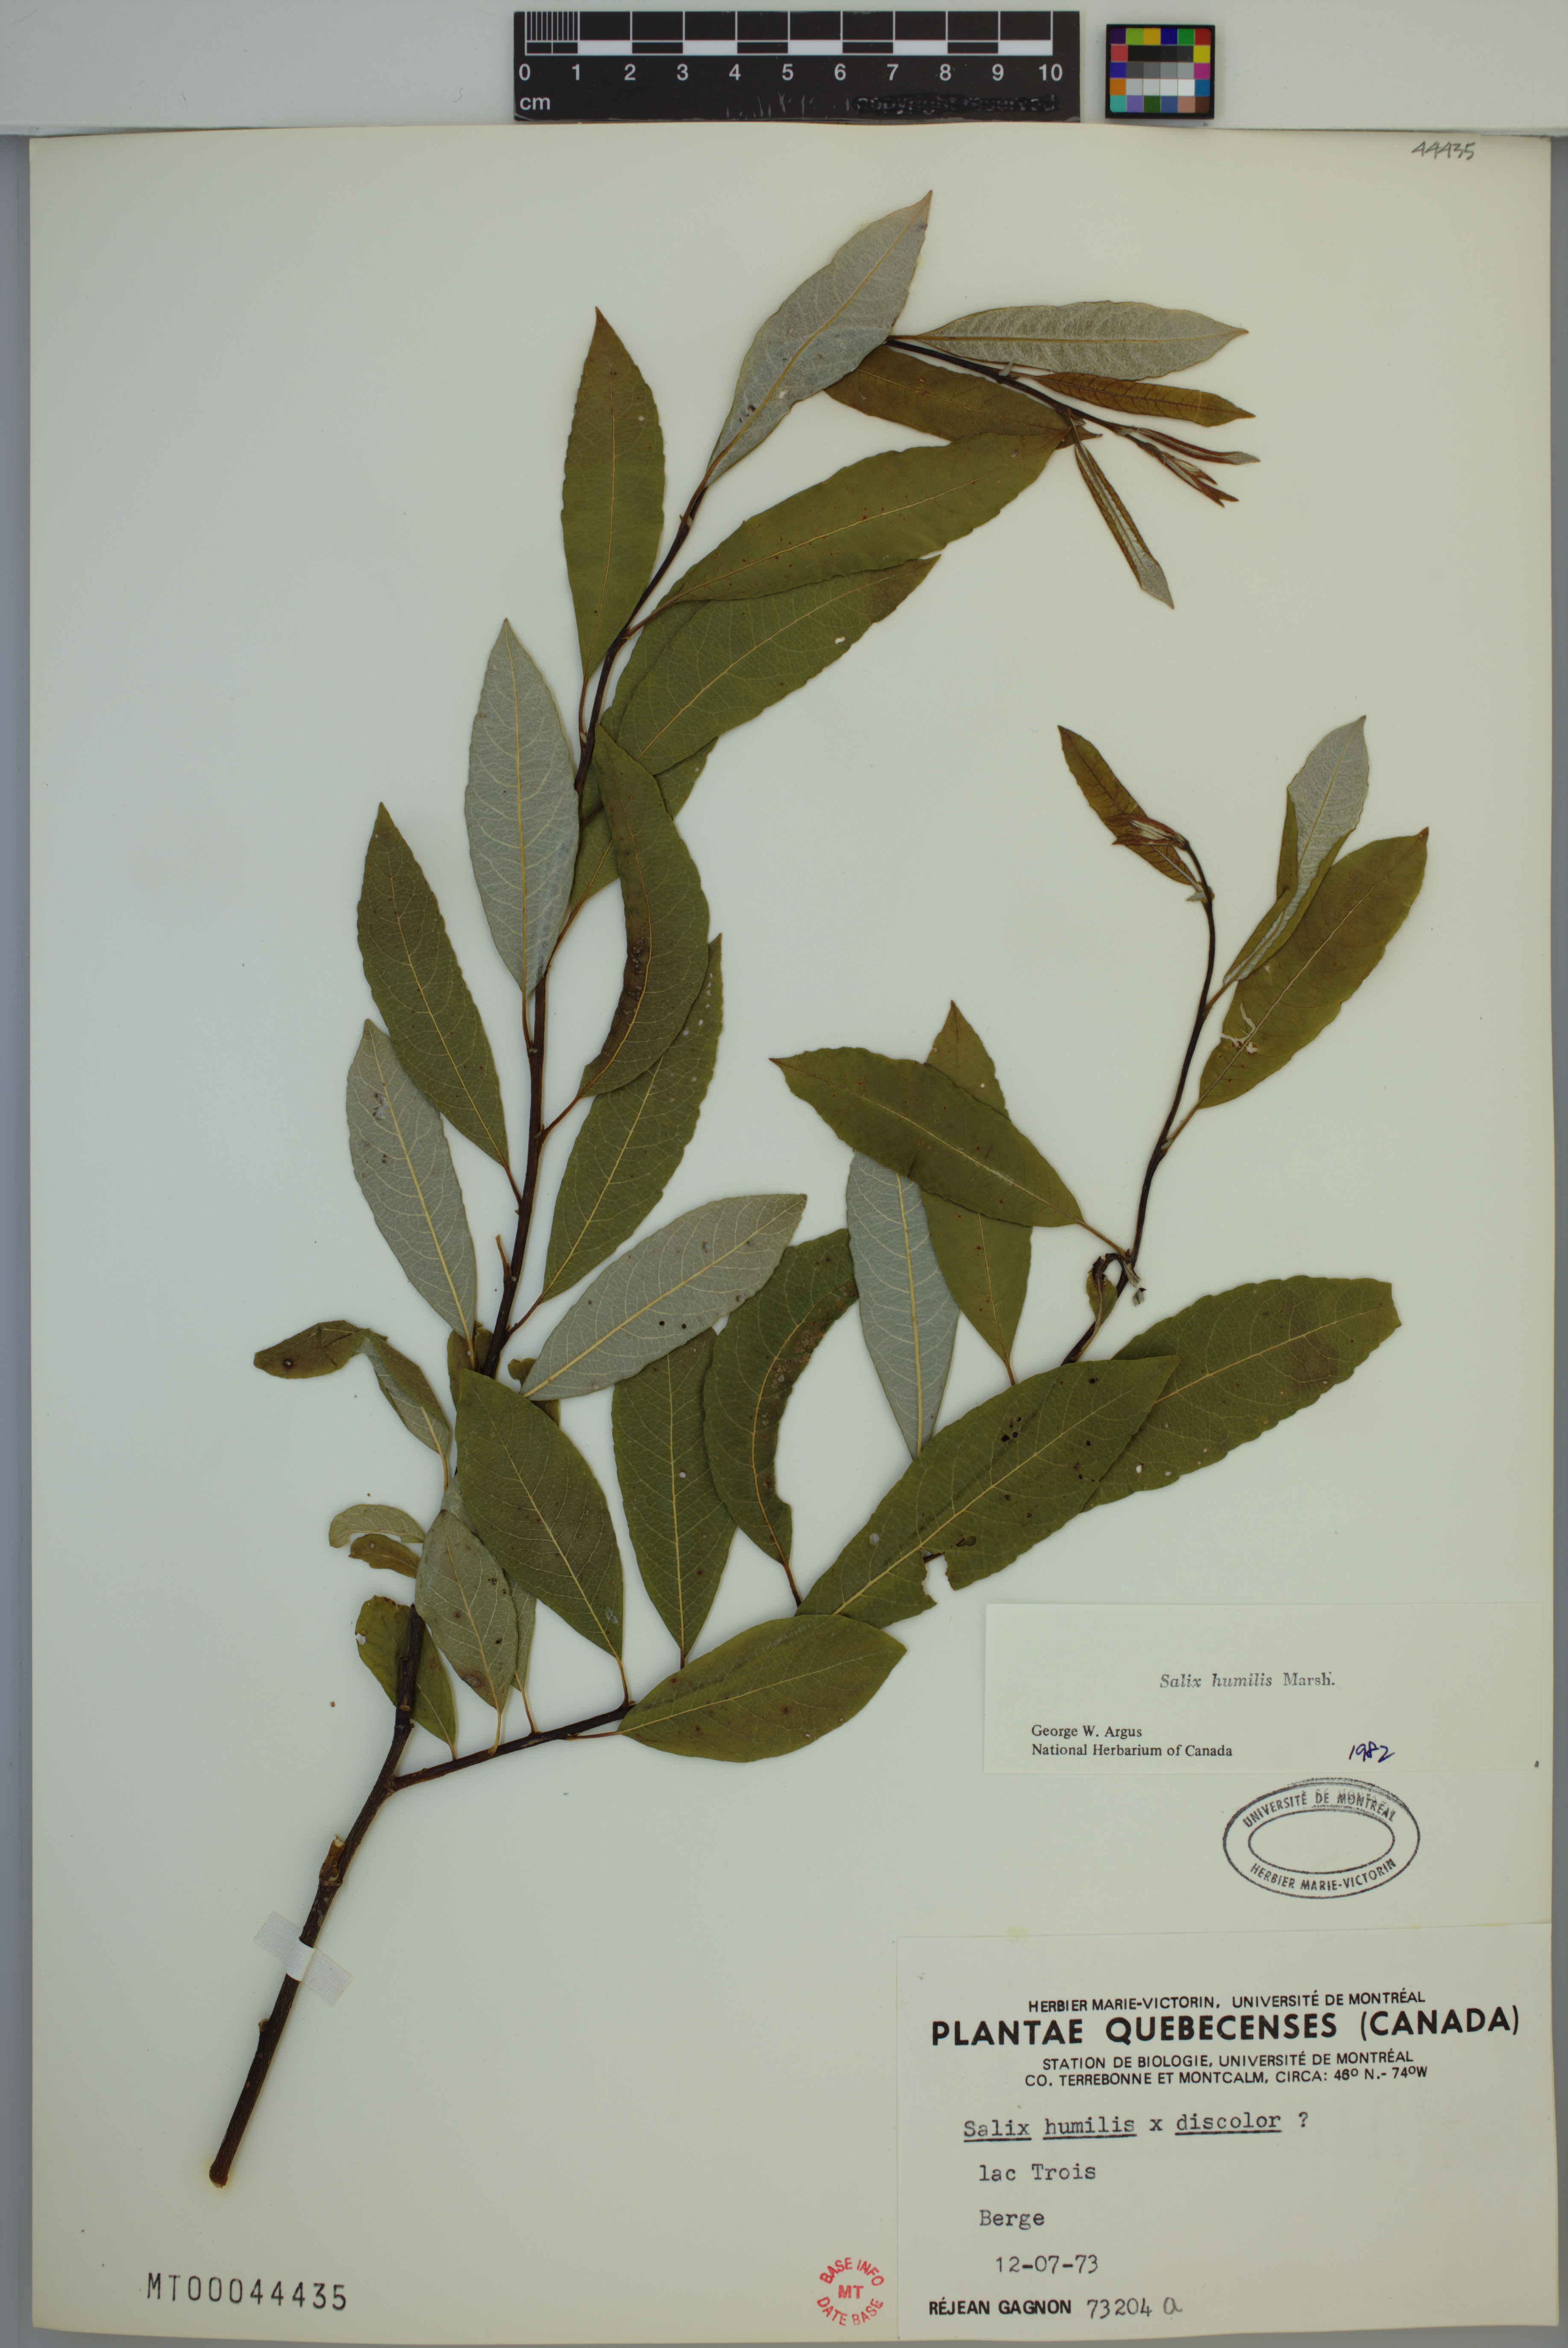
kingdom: Plantae
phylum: Tracheophyta
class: Magnoliopsida
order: Malpighiales
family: Salicaceae
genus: Salix
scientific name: Salix humilis
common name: Prairie willow
